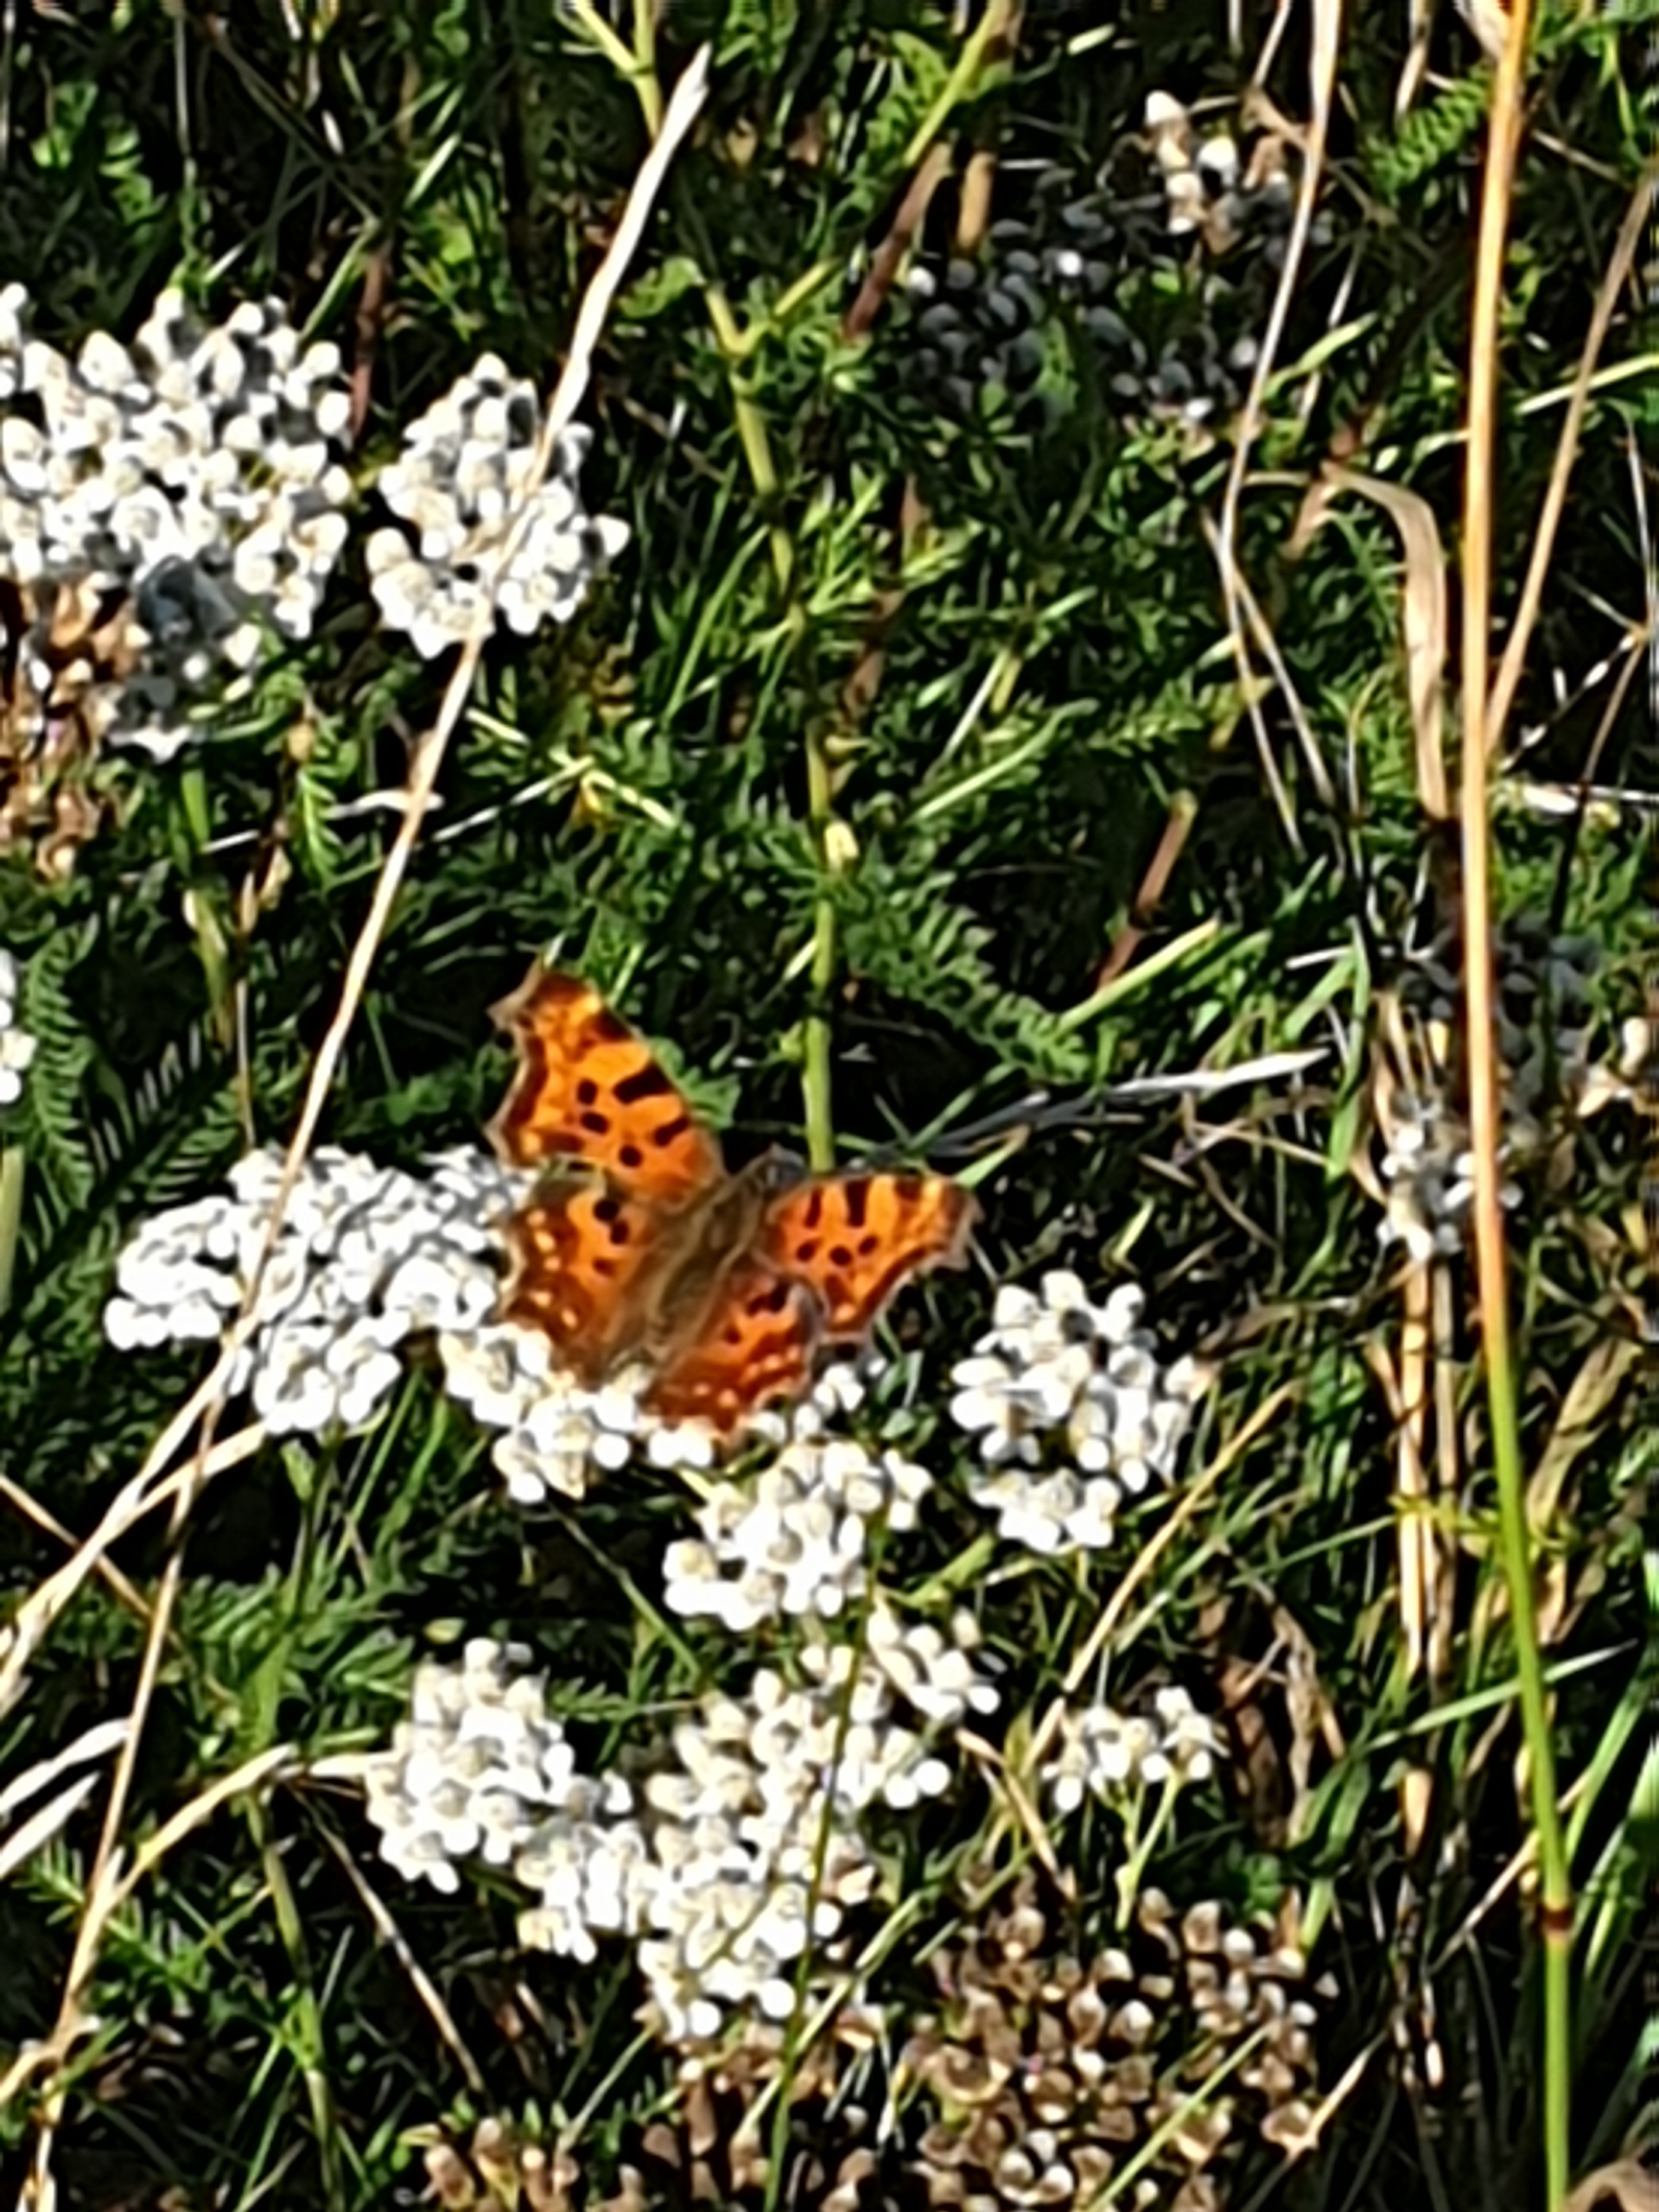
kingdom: Animalia
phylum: Arthropoda
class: Insecta
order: Lepidoptera
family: Nymphalidae
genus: Polygonia
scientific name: Polygonia c-album
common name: Det hvide C
